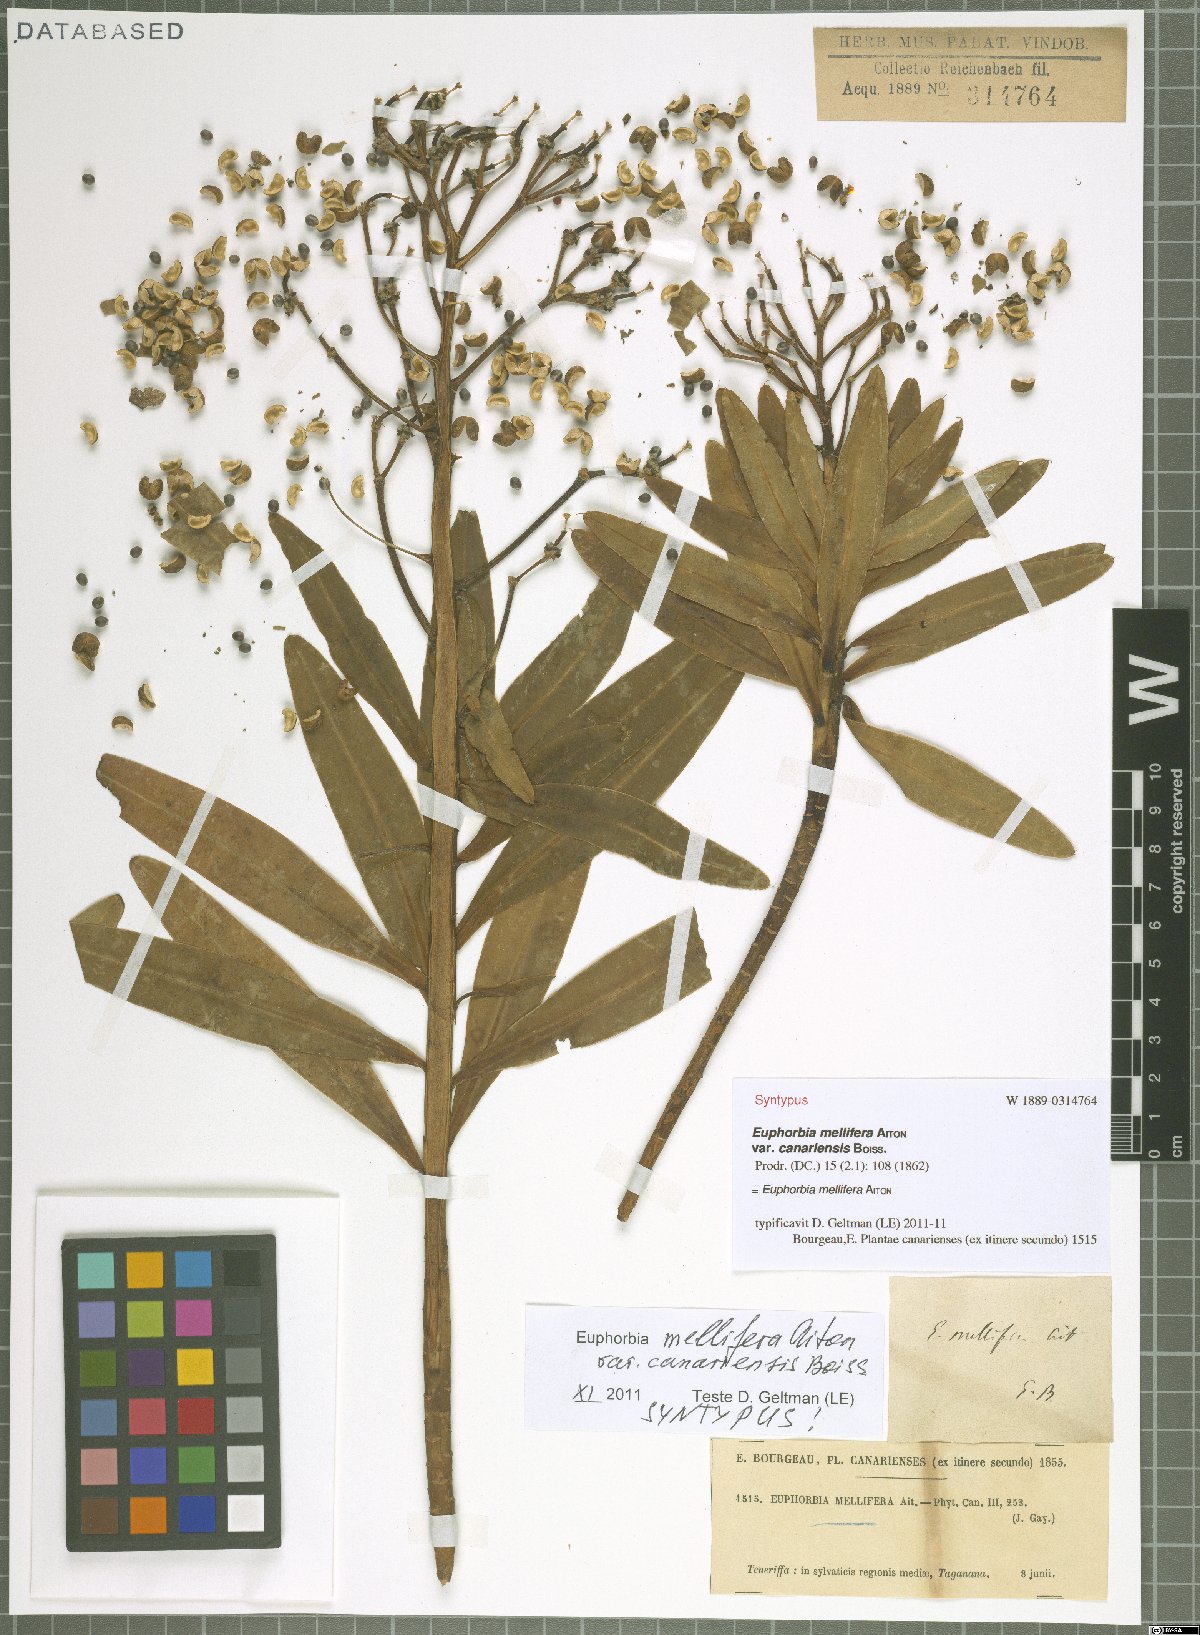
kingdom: Plantae
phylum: Tracheophyta
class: Magnoliopsida
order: Malpighiales
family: Euphorbiaceae
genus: Euphorbia
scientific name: Euphorbia mellifera
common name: Canary spurge
